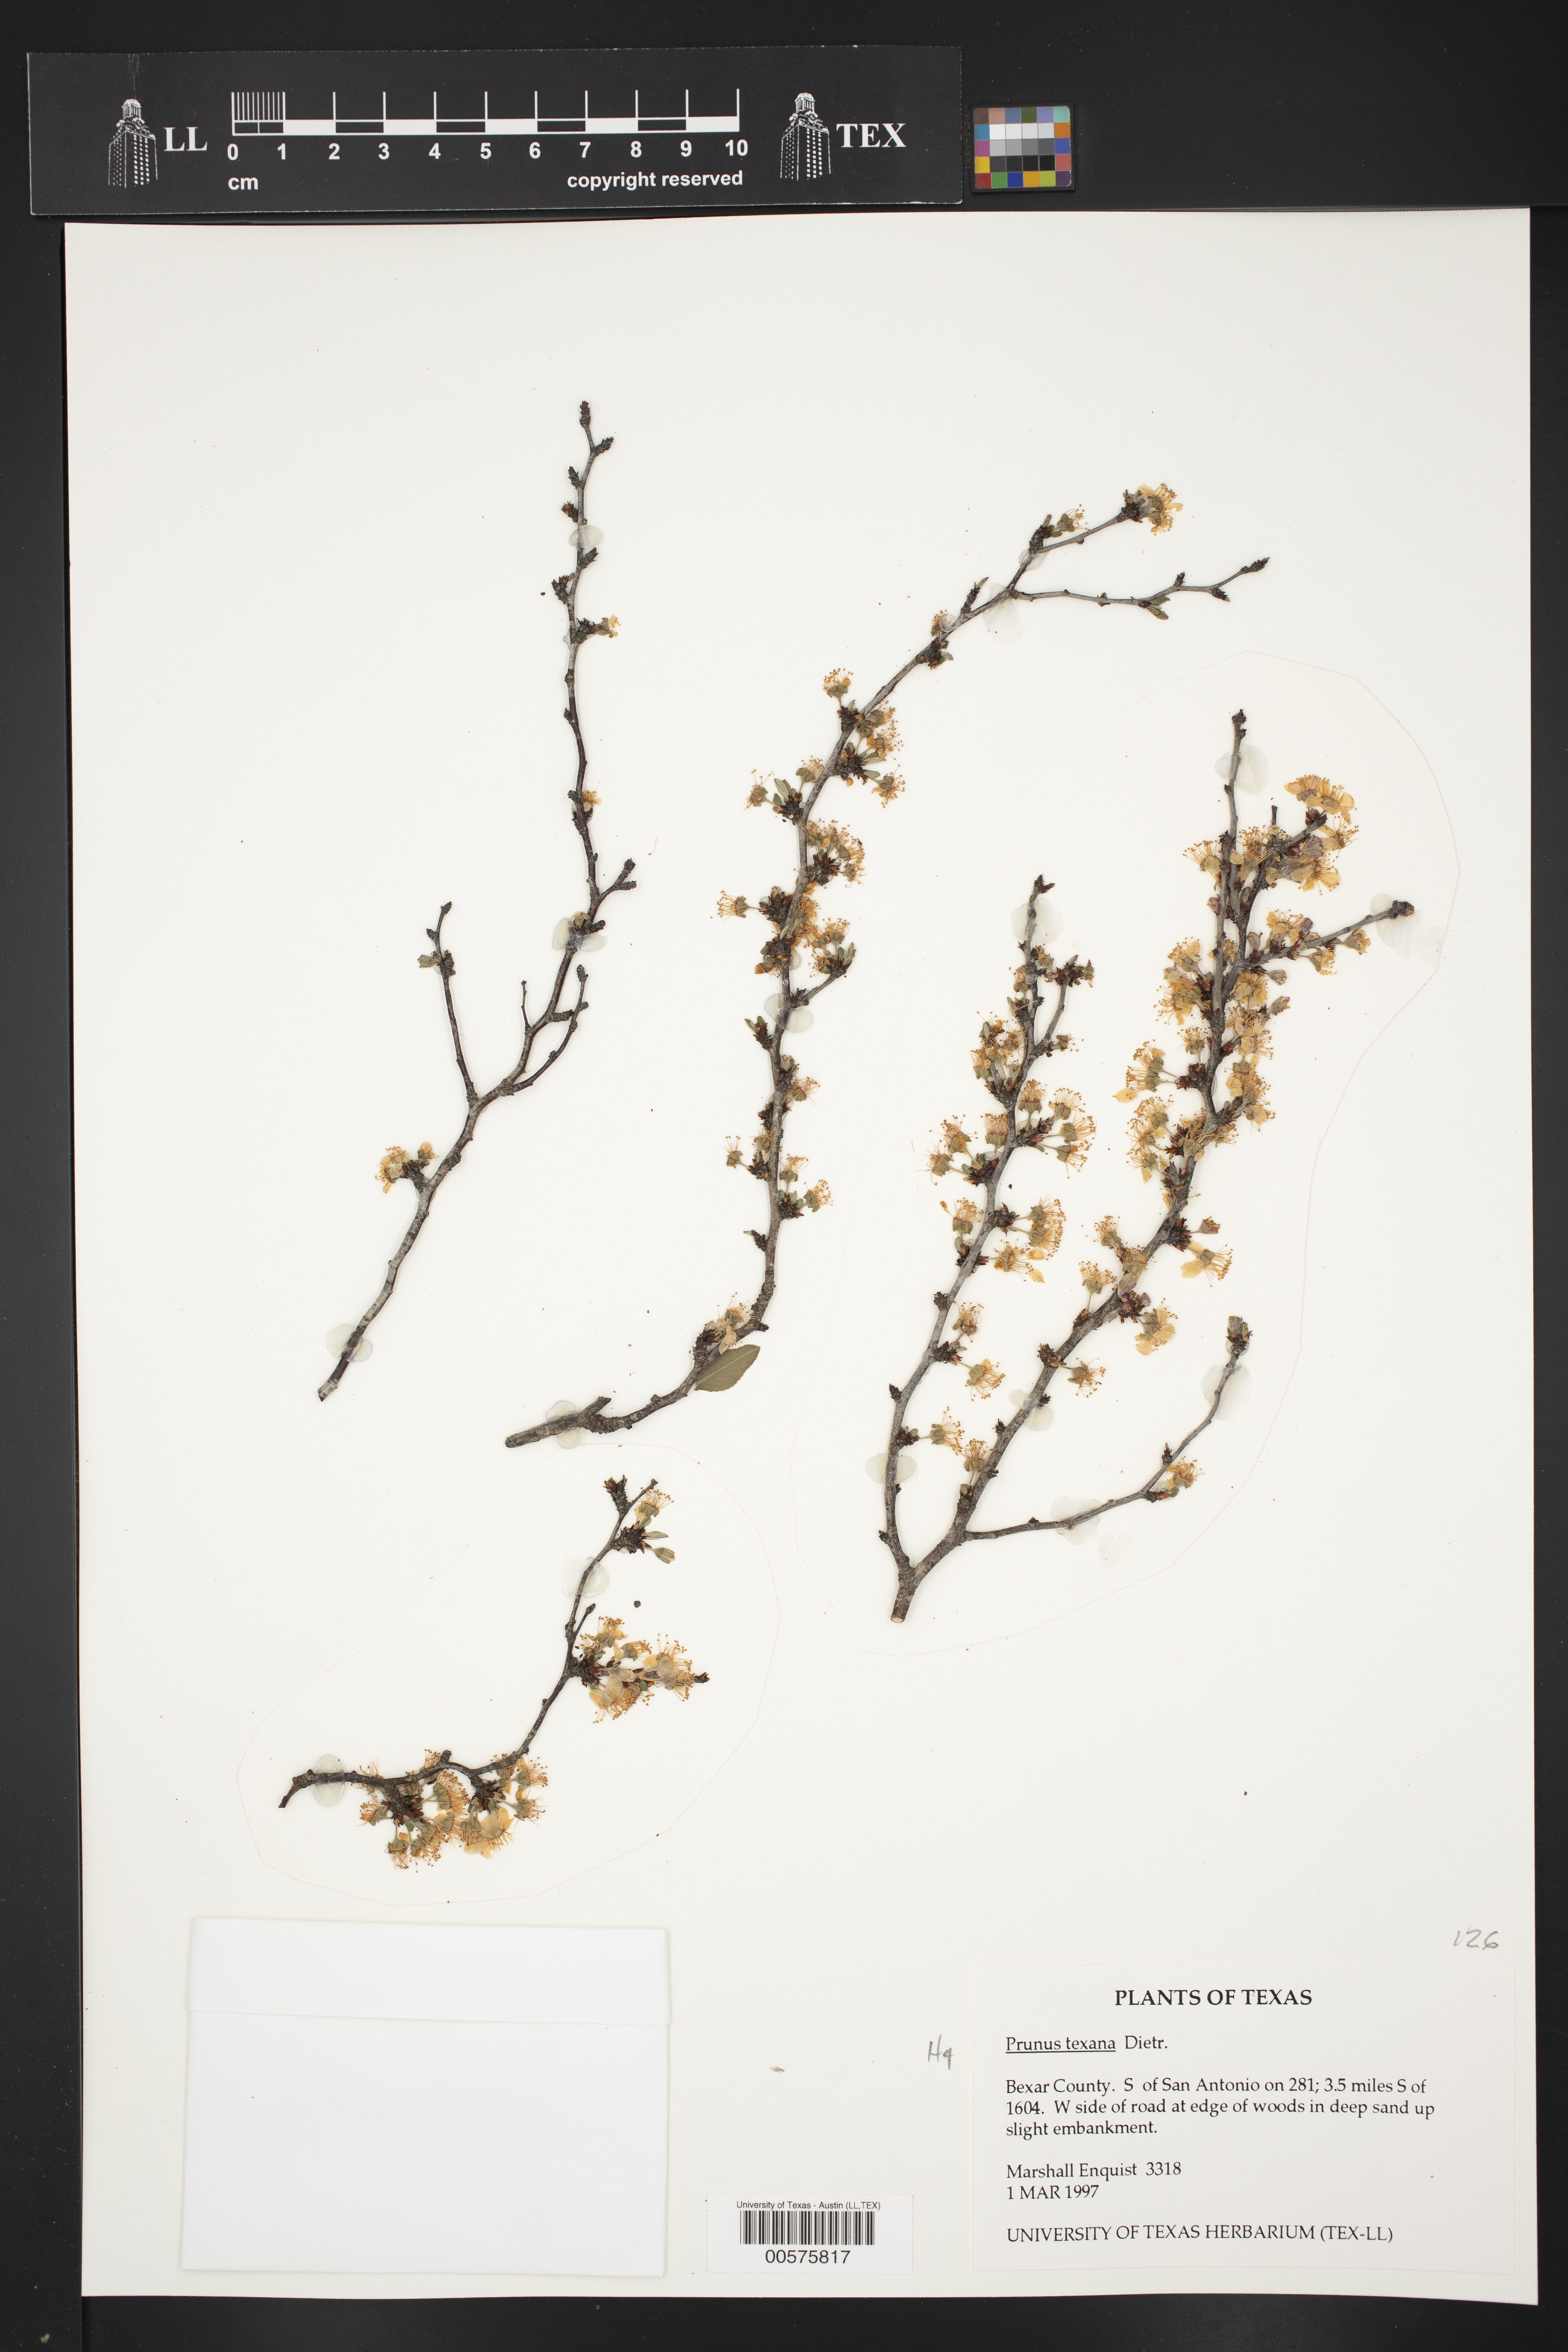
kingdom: Plantae
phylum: Tracheophyta
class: Magnoliopsida
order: Rosales
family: Rosaceae
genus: Prunus
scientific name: Prunus texana
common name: Texas almond cherry
